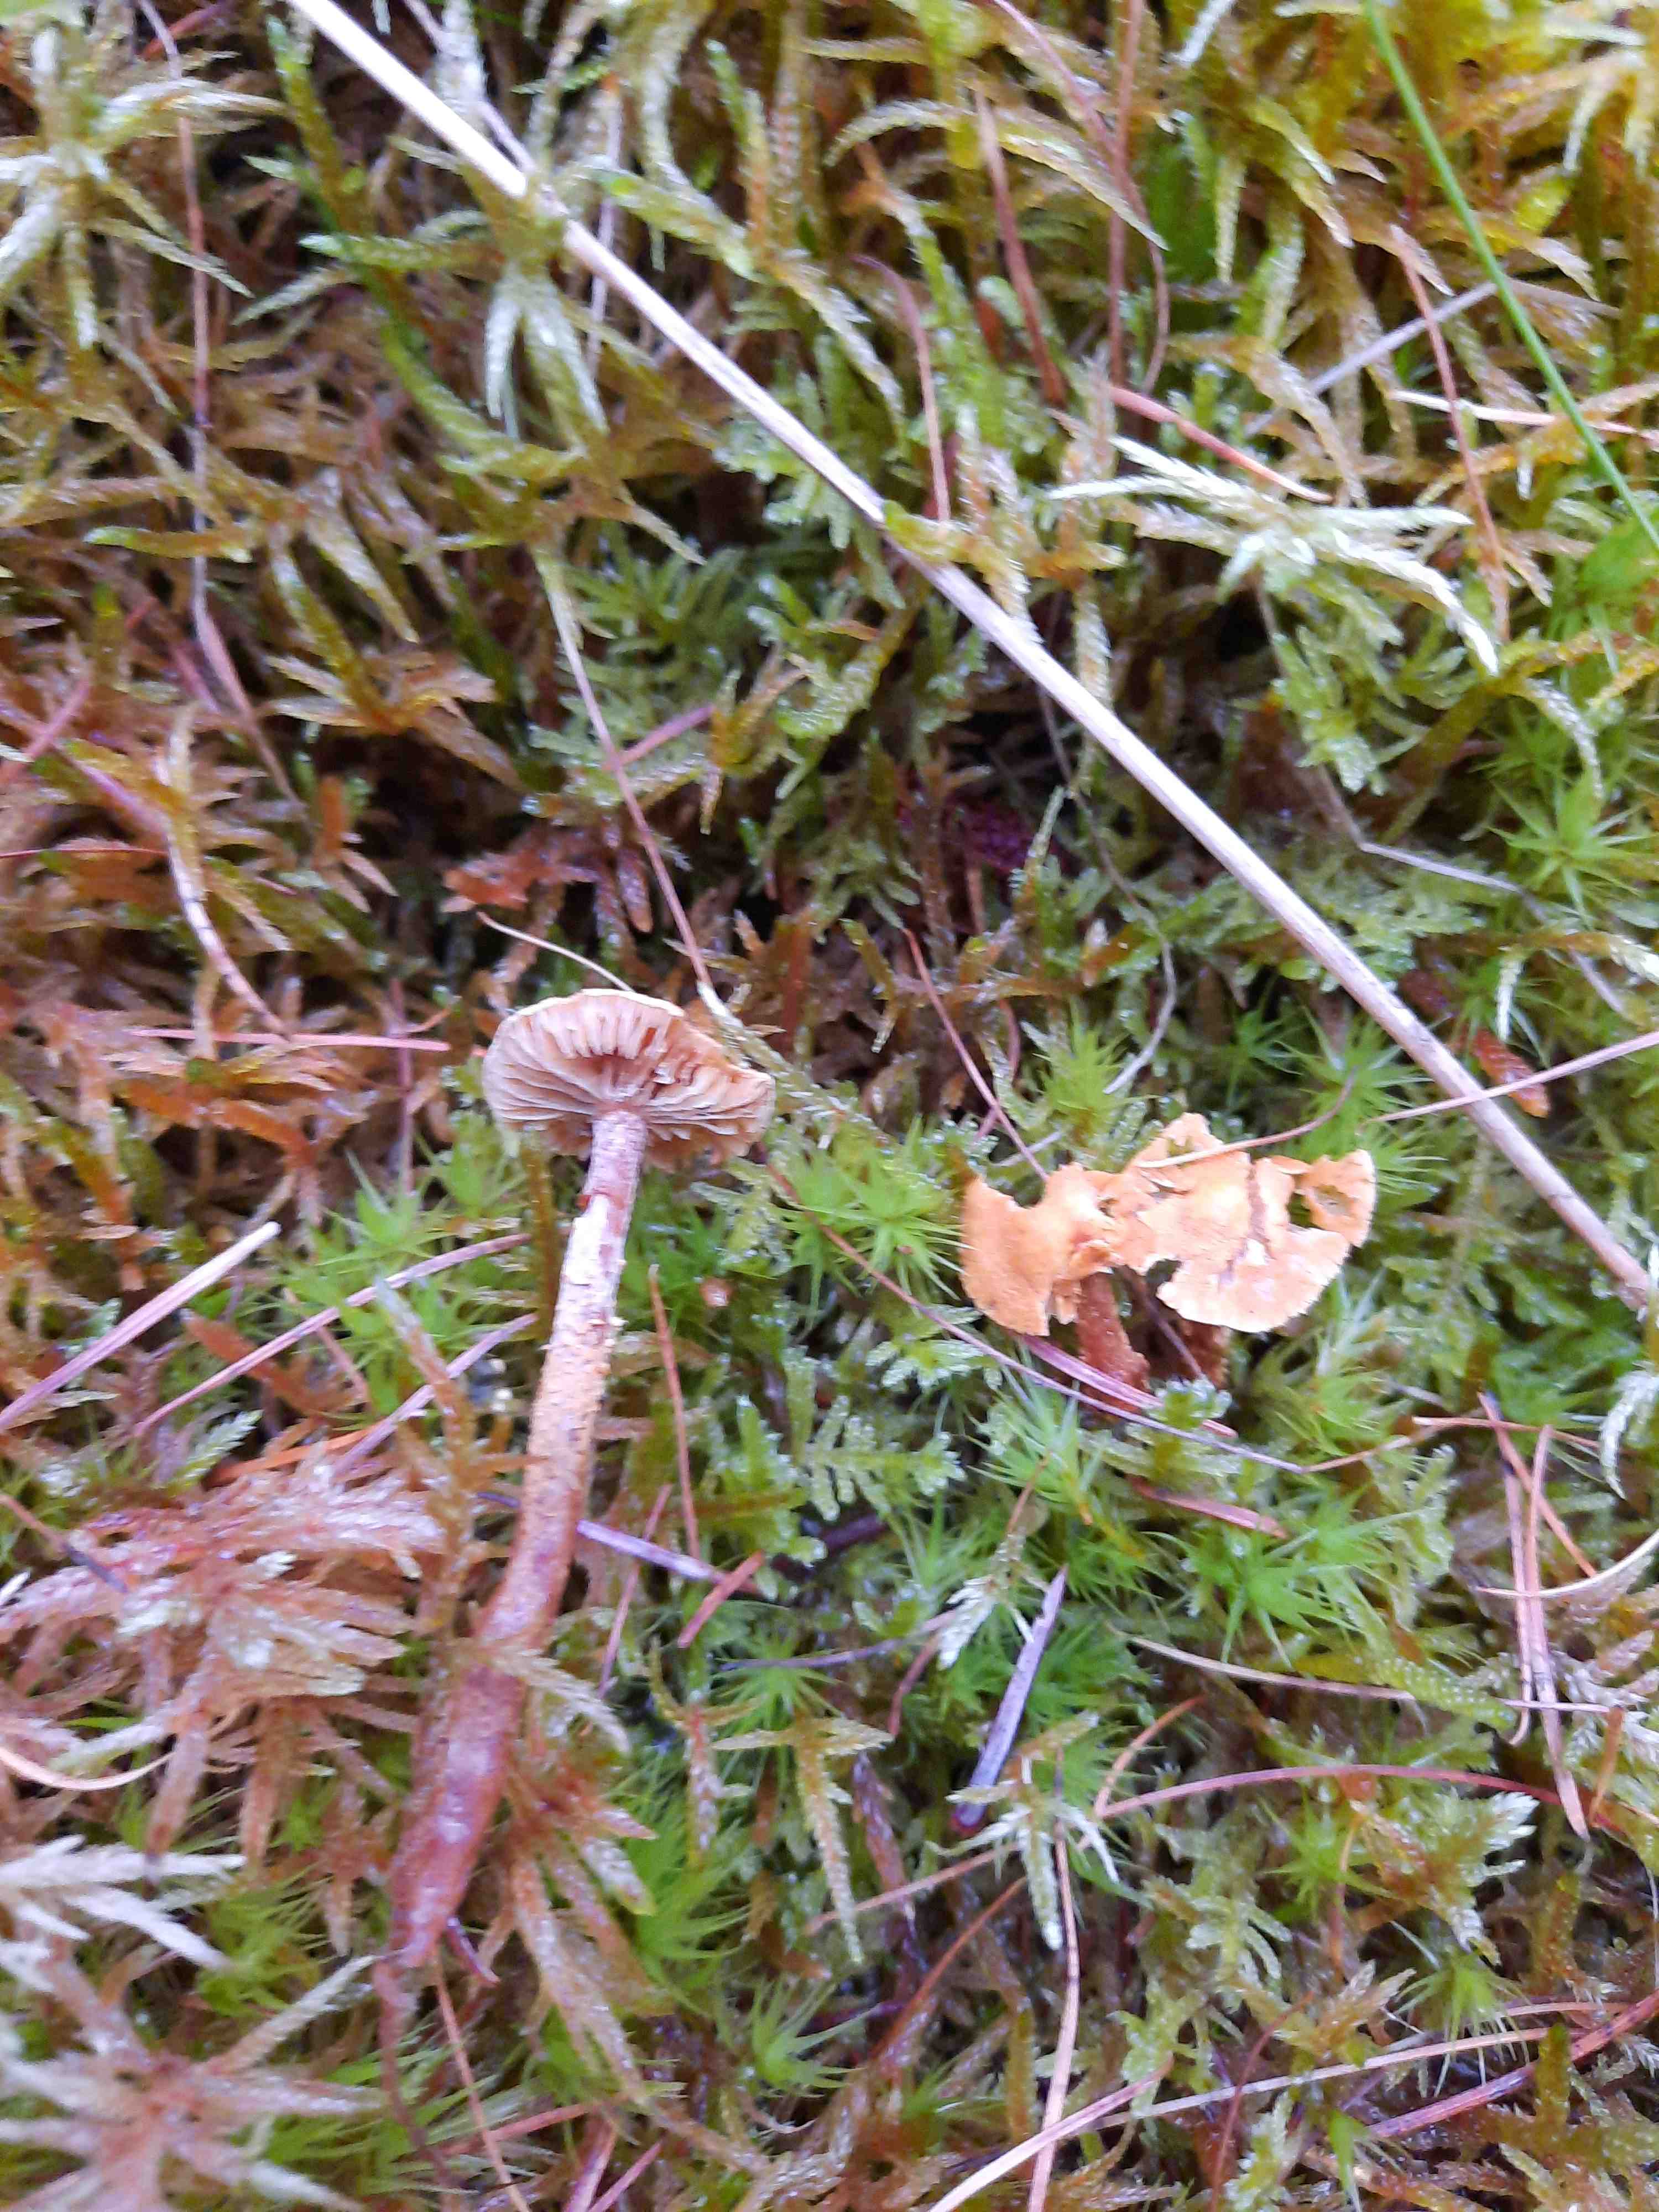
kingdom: Fungi
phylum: Basidiomycota
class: Agaricomycetes
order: Agaricales
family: Tricholomataceae
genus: Cystoderma
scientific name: Cystoderma jasonis
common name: gulkødet grynhat
